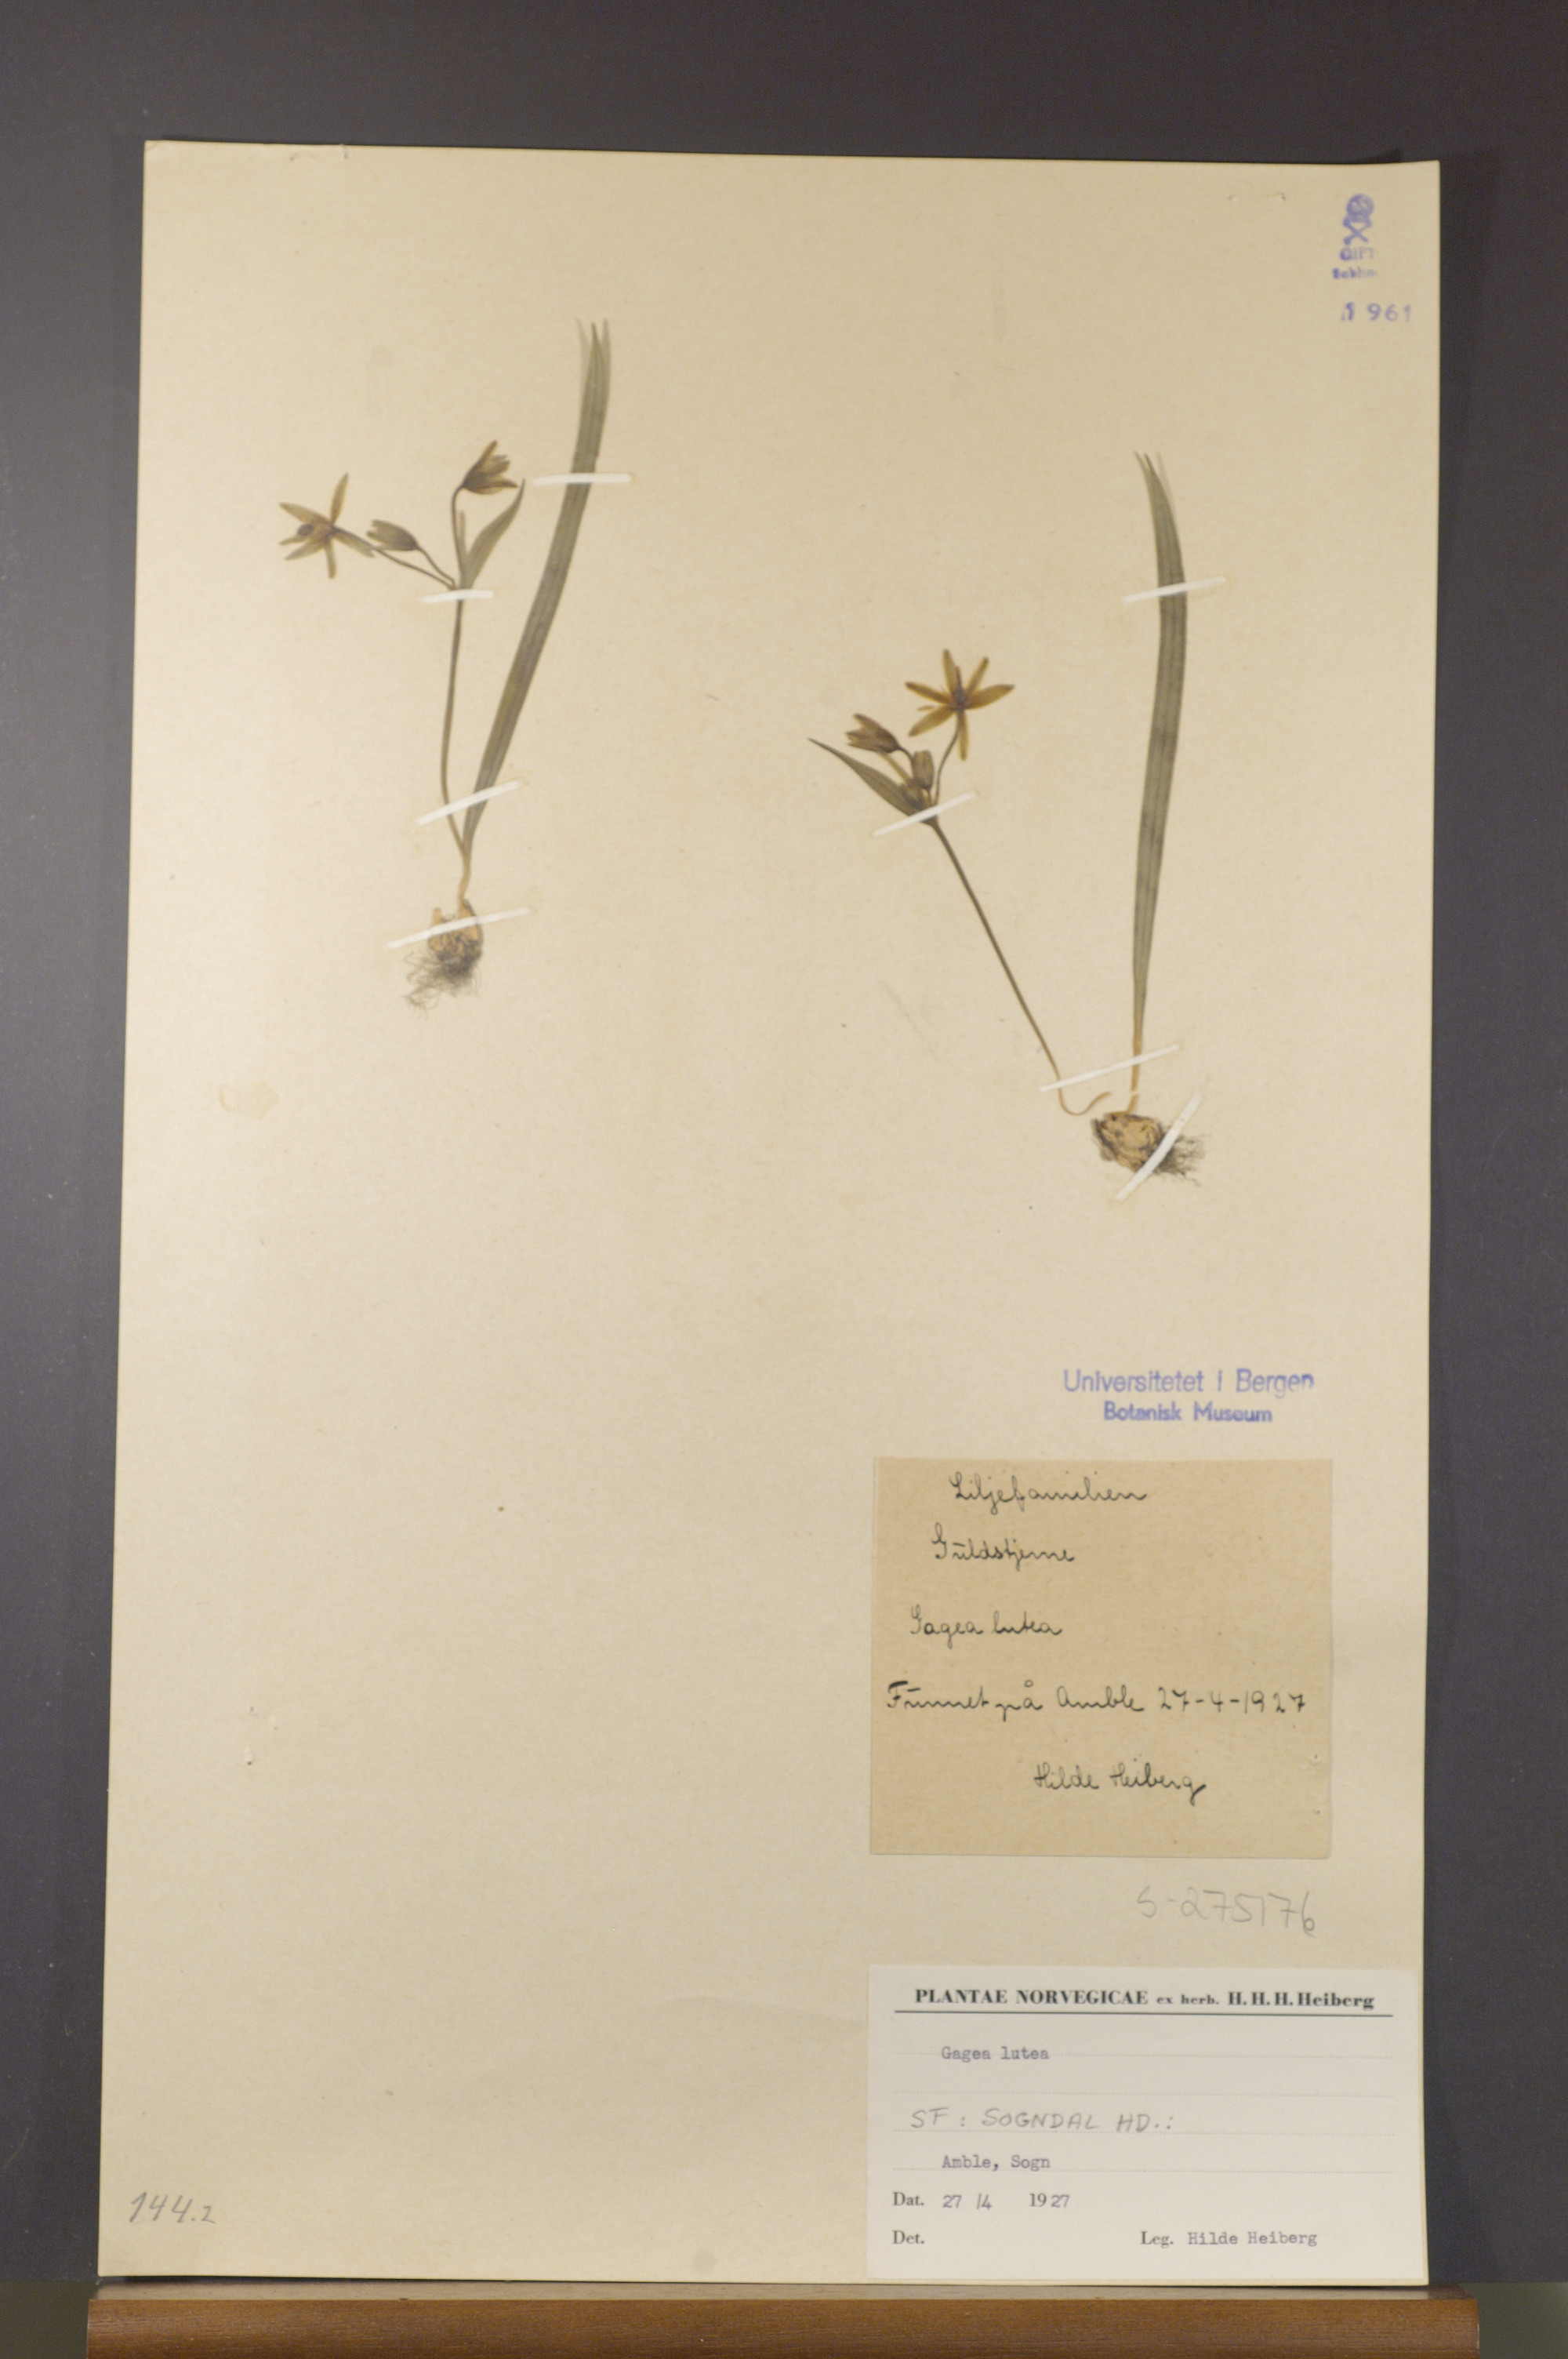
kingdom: Plantae
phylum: Tracheophyta
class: Liliopsida
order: Liliales
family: Liliaceae
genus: Gagea
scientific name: Gagea lutea
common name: Yellow star-of-bethlehem
